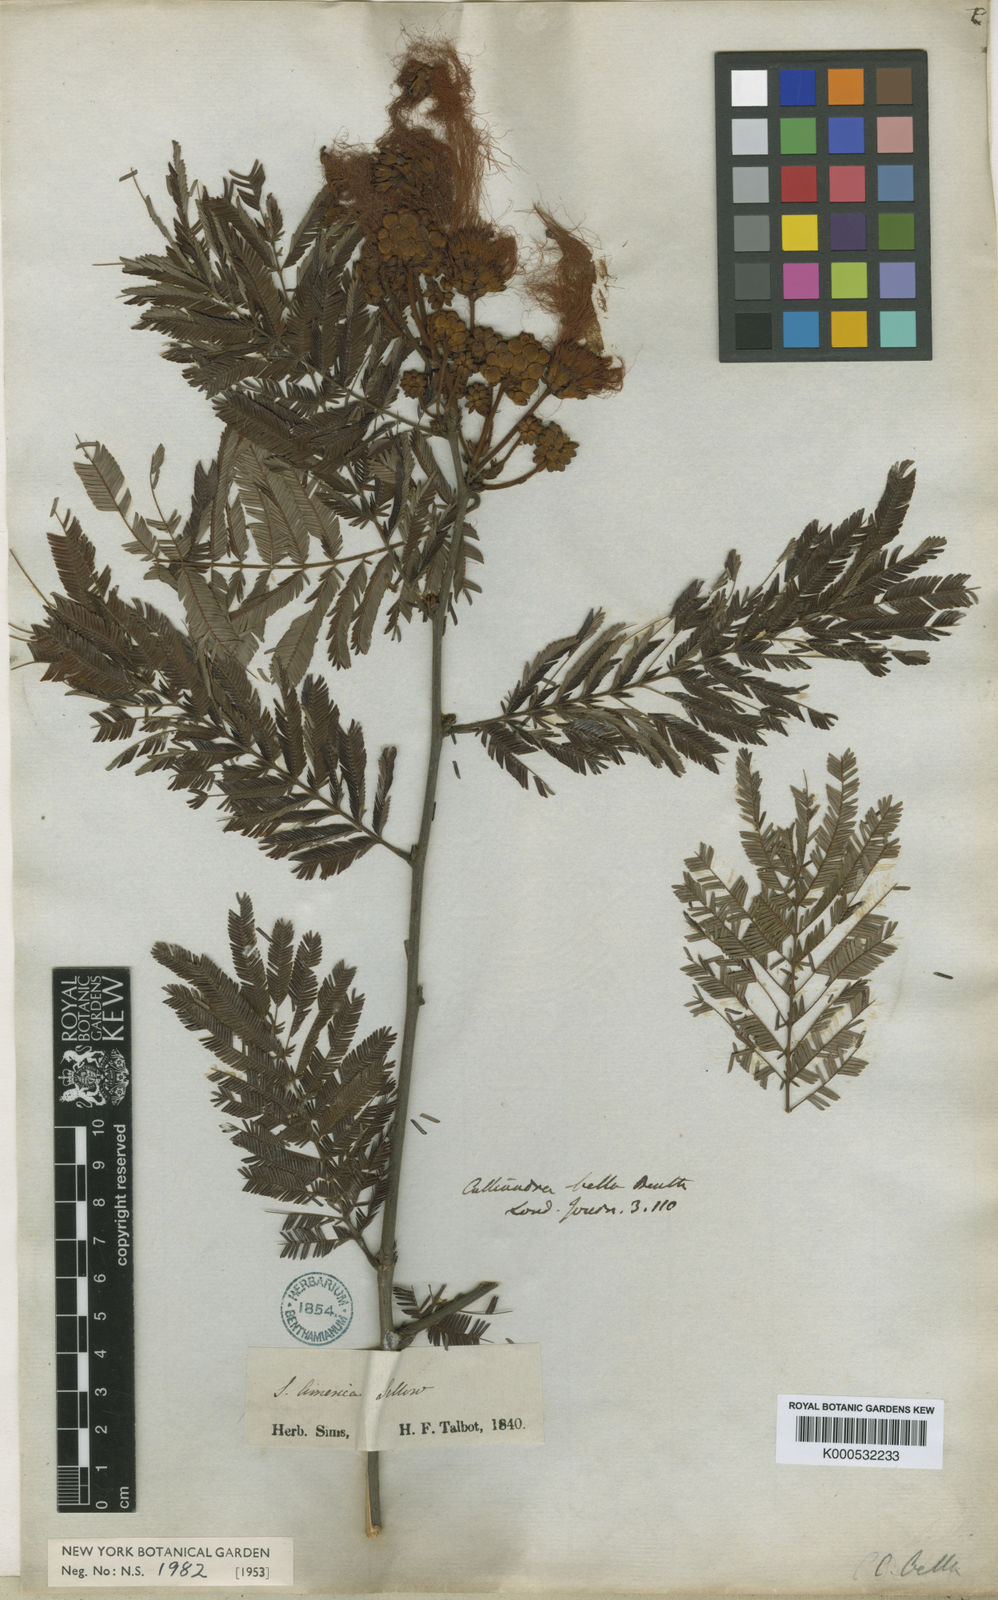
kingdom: Plantae
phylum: Tracheophyta
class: Magnoliopsida
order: Fabales
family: Fabaceae
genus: Calliandra
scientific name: Calliandra bella
